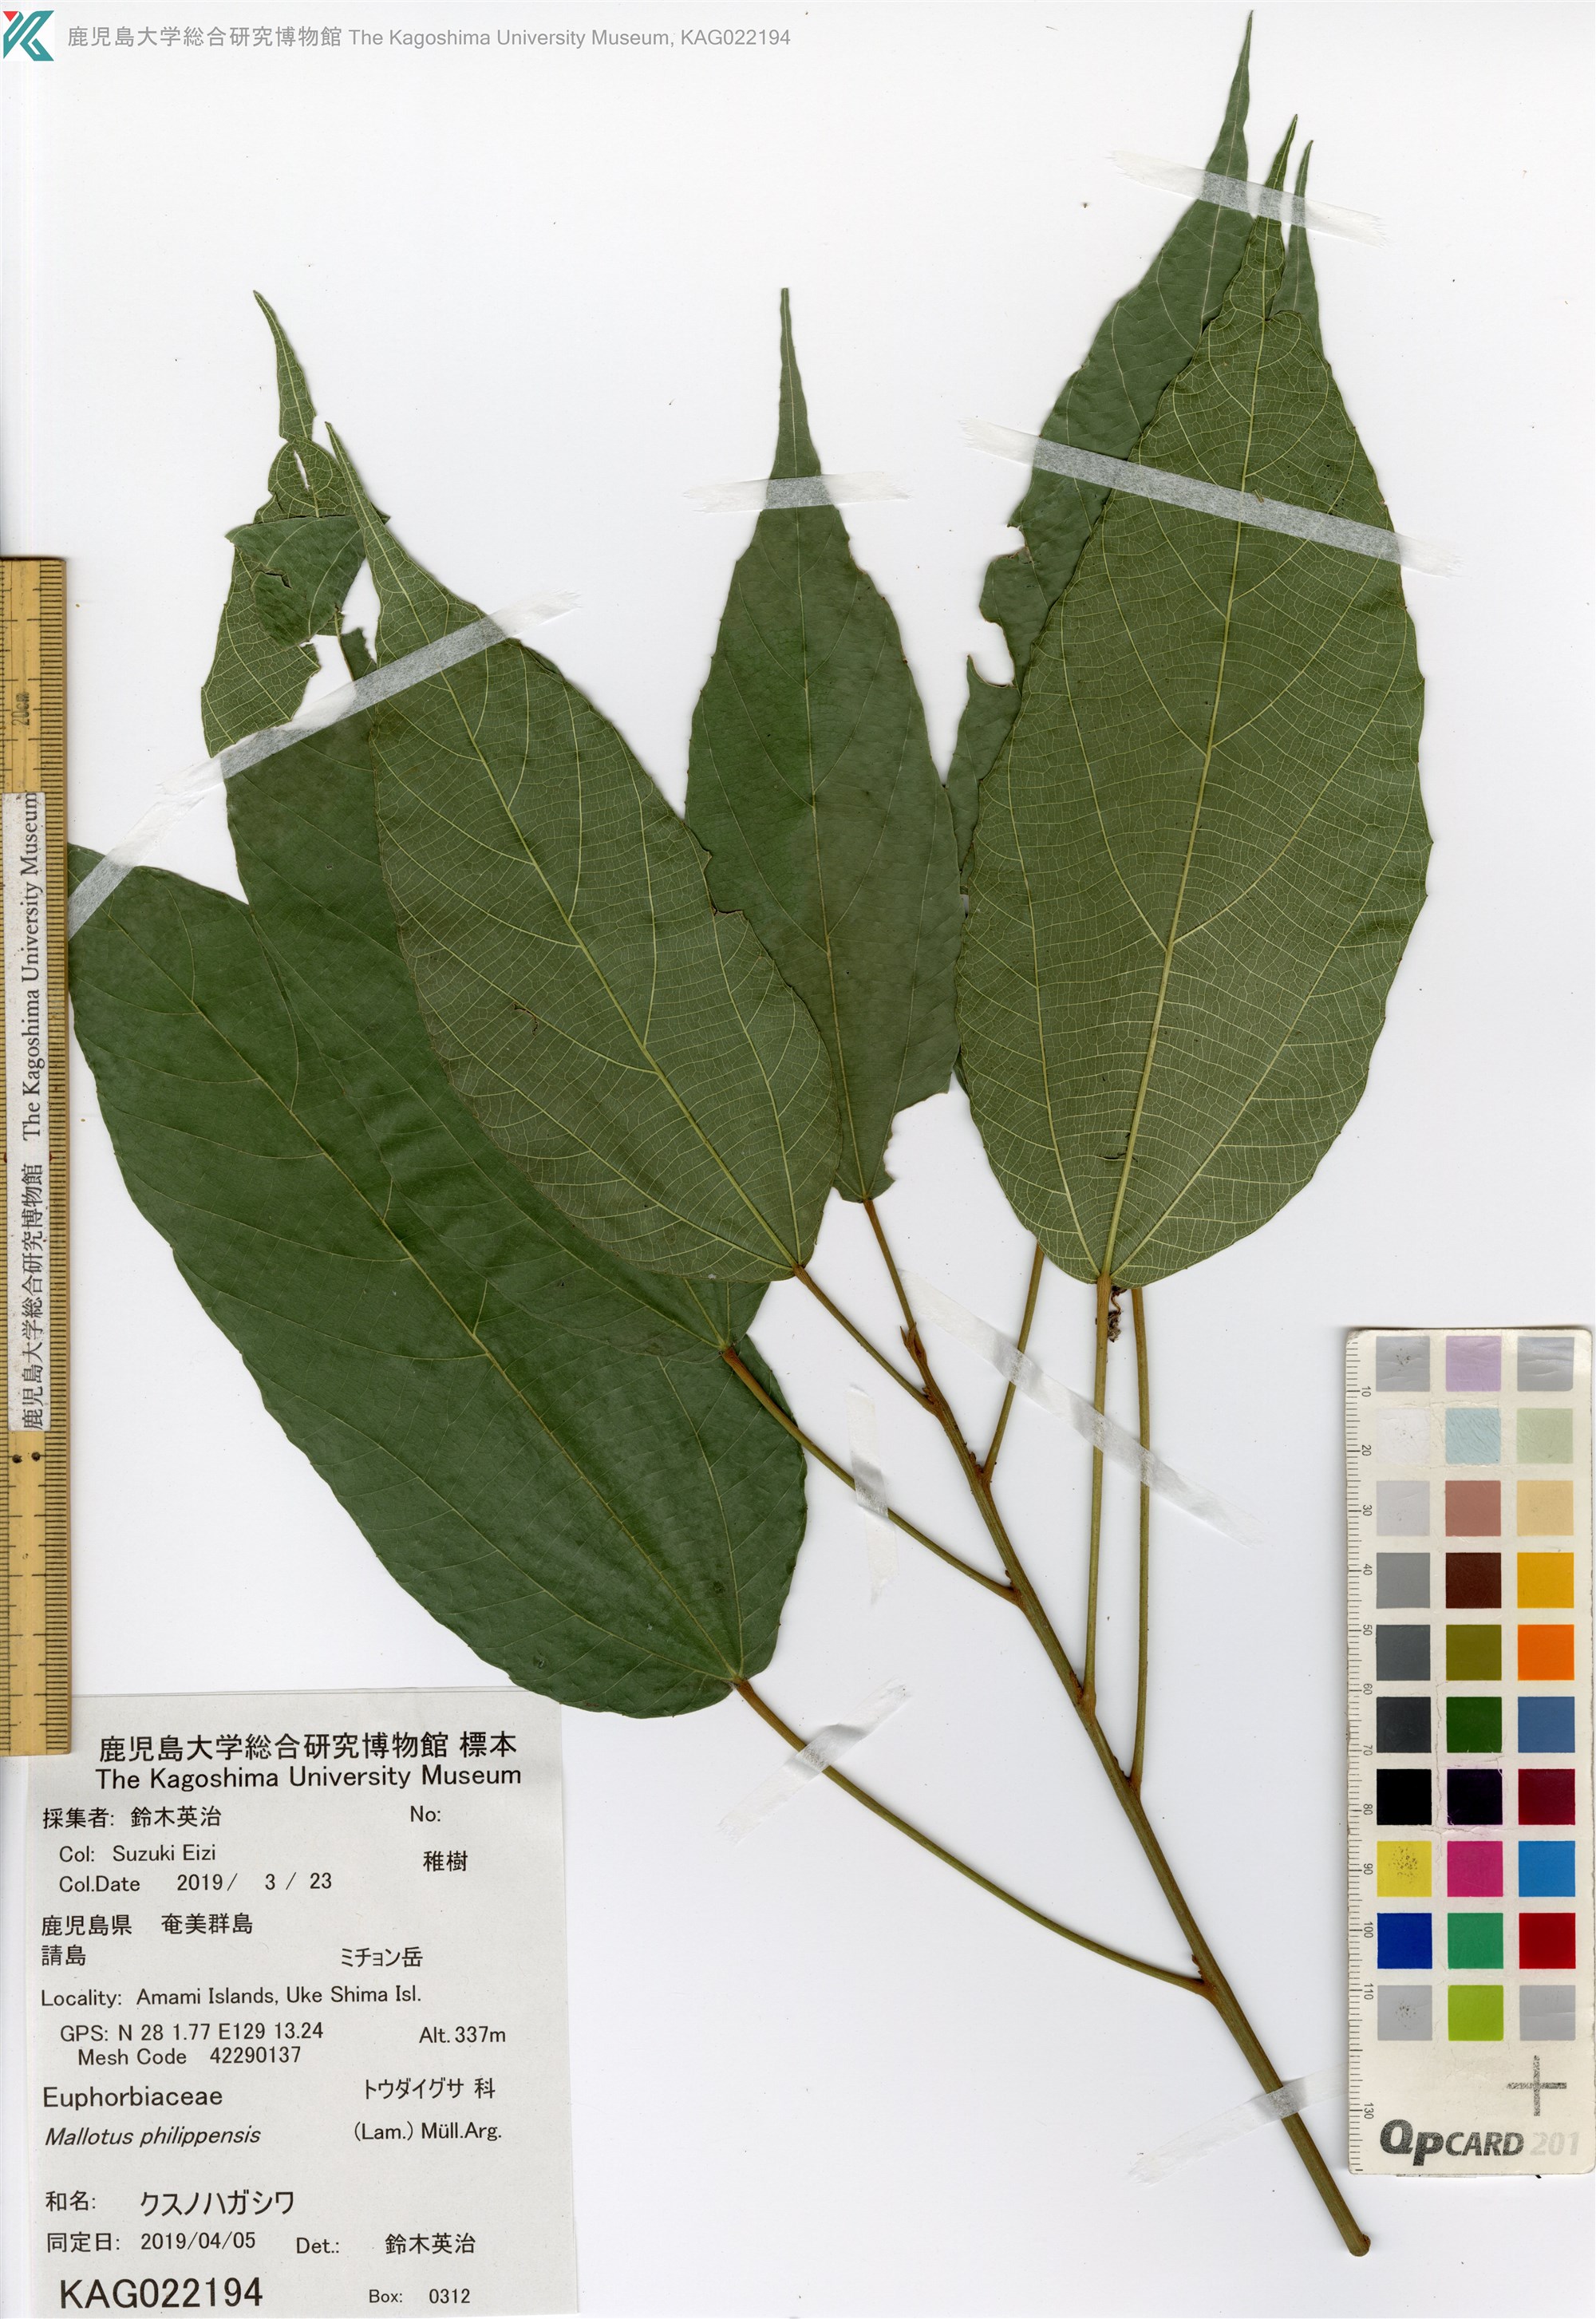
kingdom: Plantae
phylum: Tracheophyta
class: Magnoliopsida
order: Malpighiales
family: Euphorbiaceae
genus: Mallotus
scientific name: Mallotus philippensis
